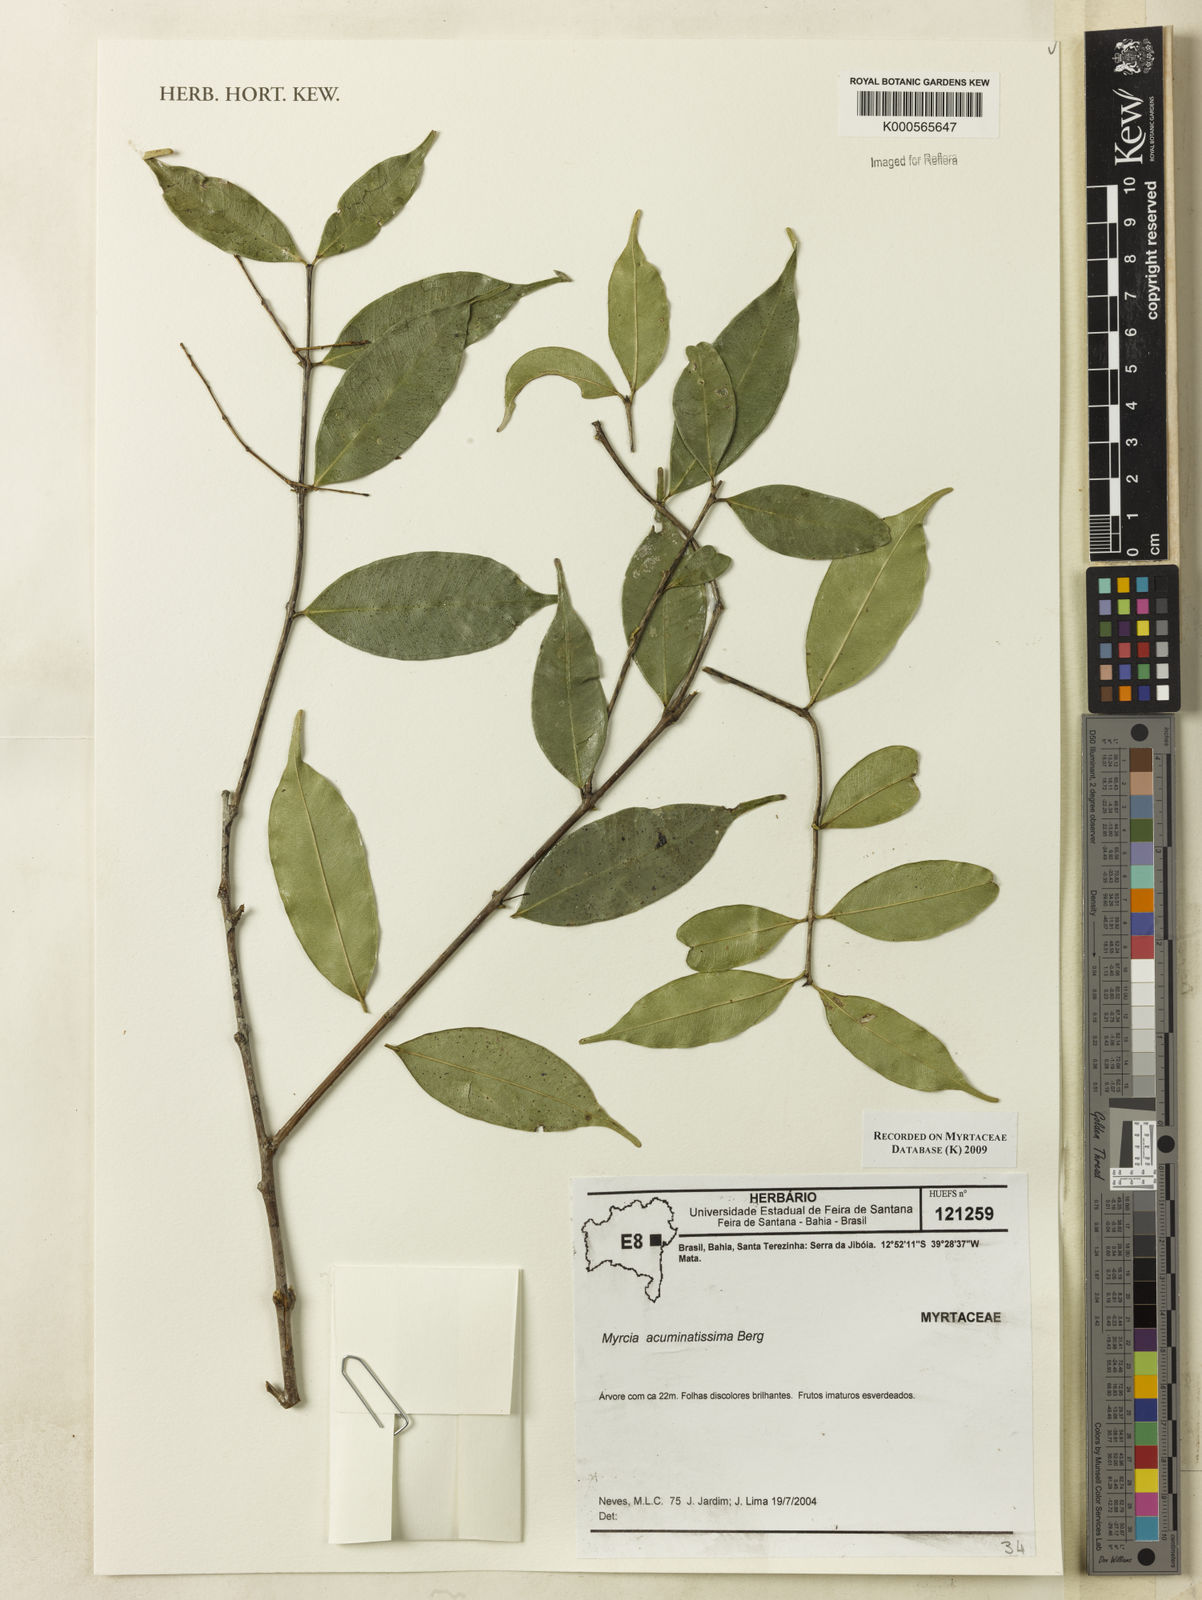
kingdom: Plantae
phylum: Tracheophyta
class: Magnoliopsida
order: Myrtales
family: Myrtaceae
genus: Myrcia
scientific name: Myrcia racemosa
